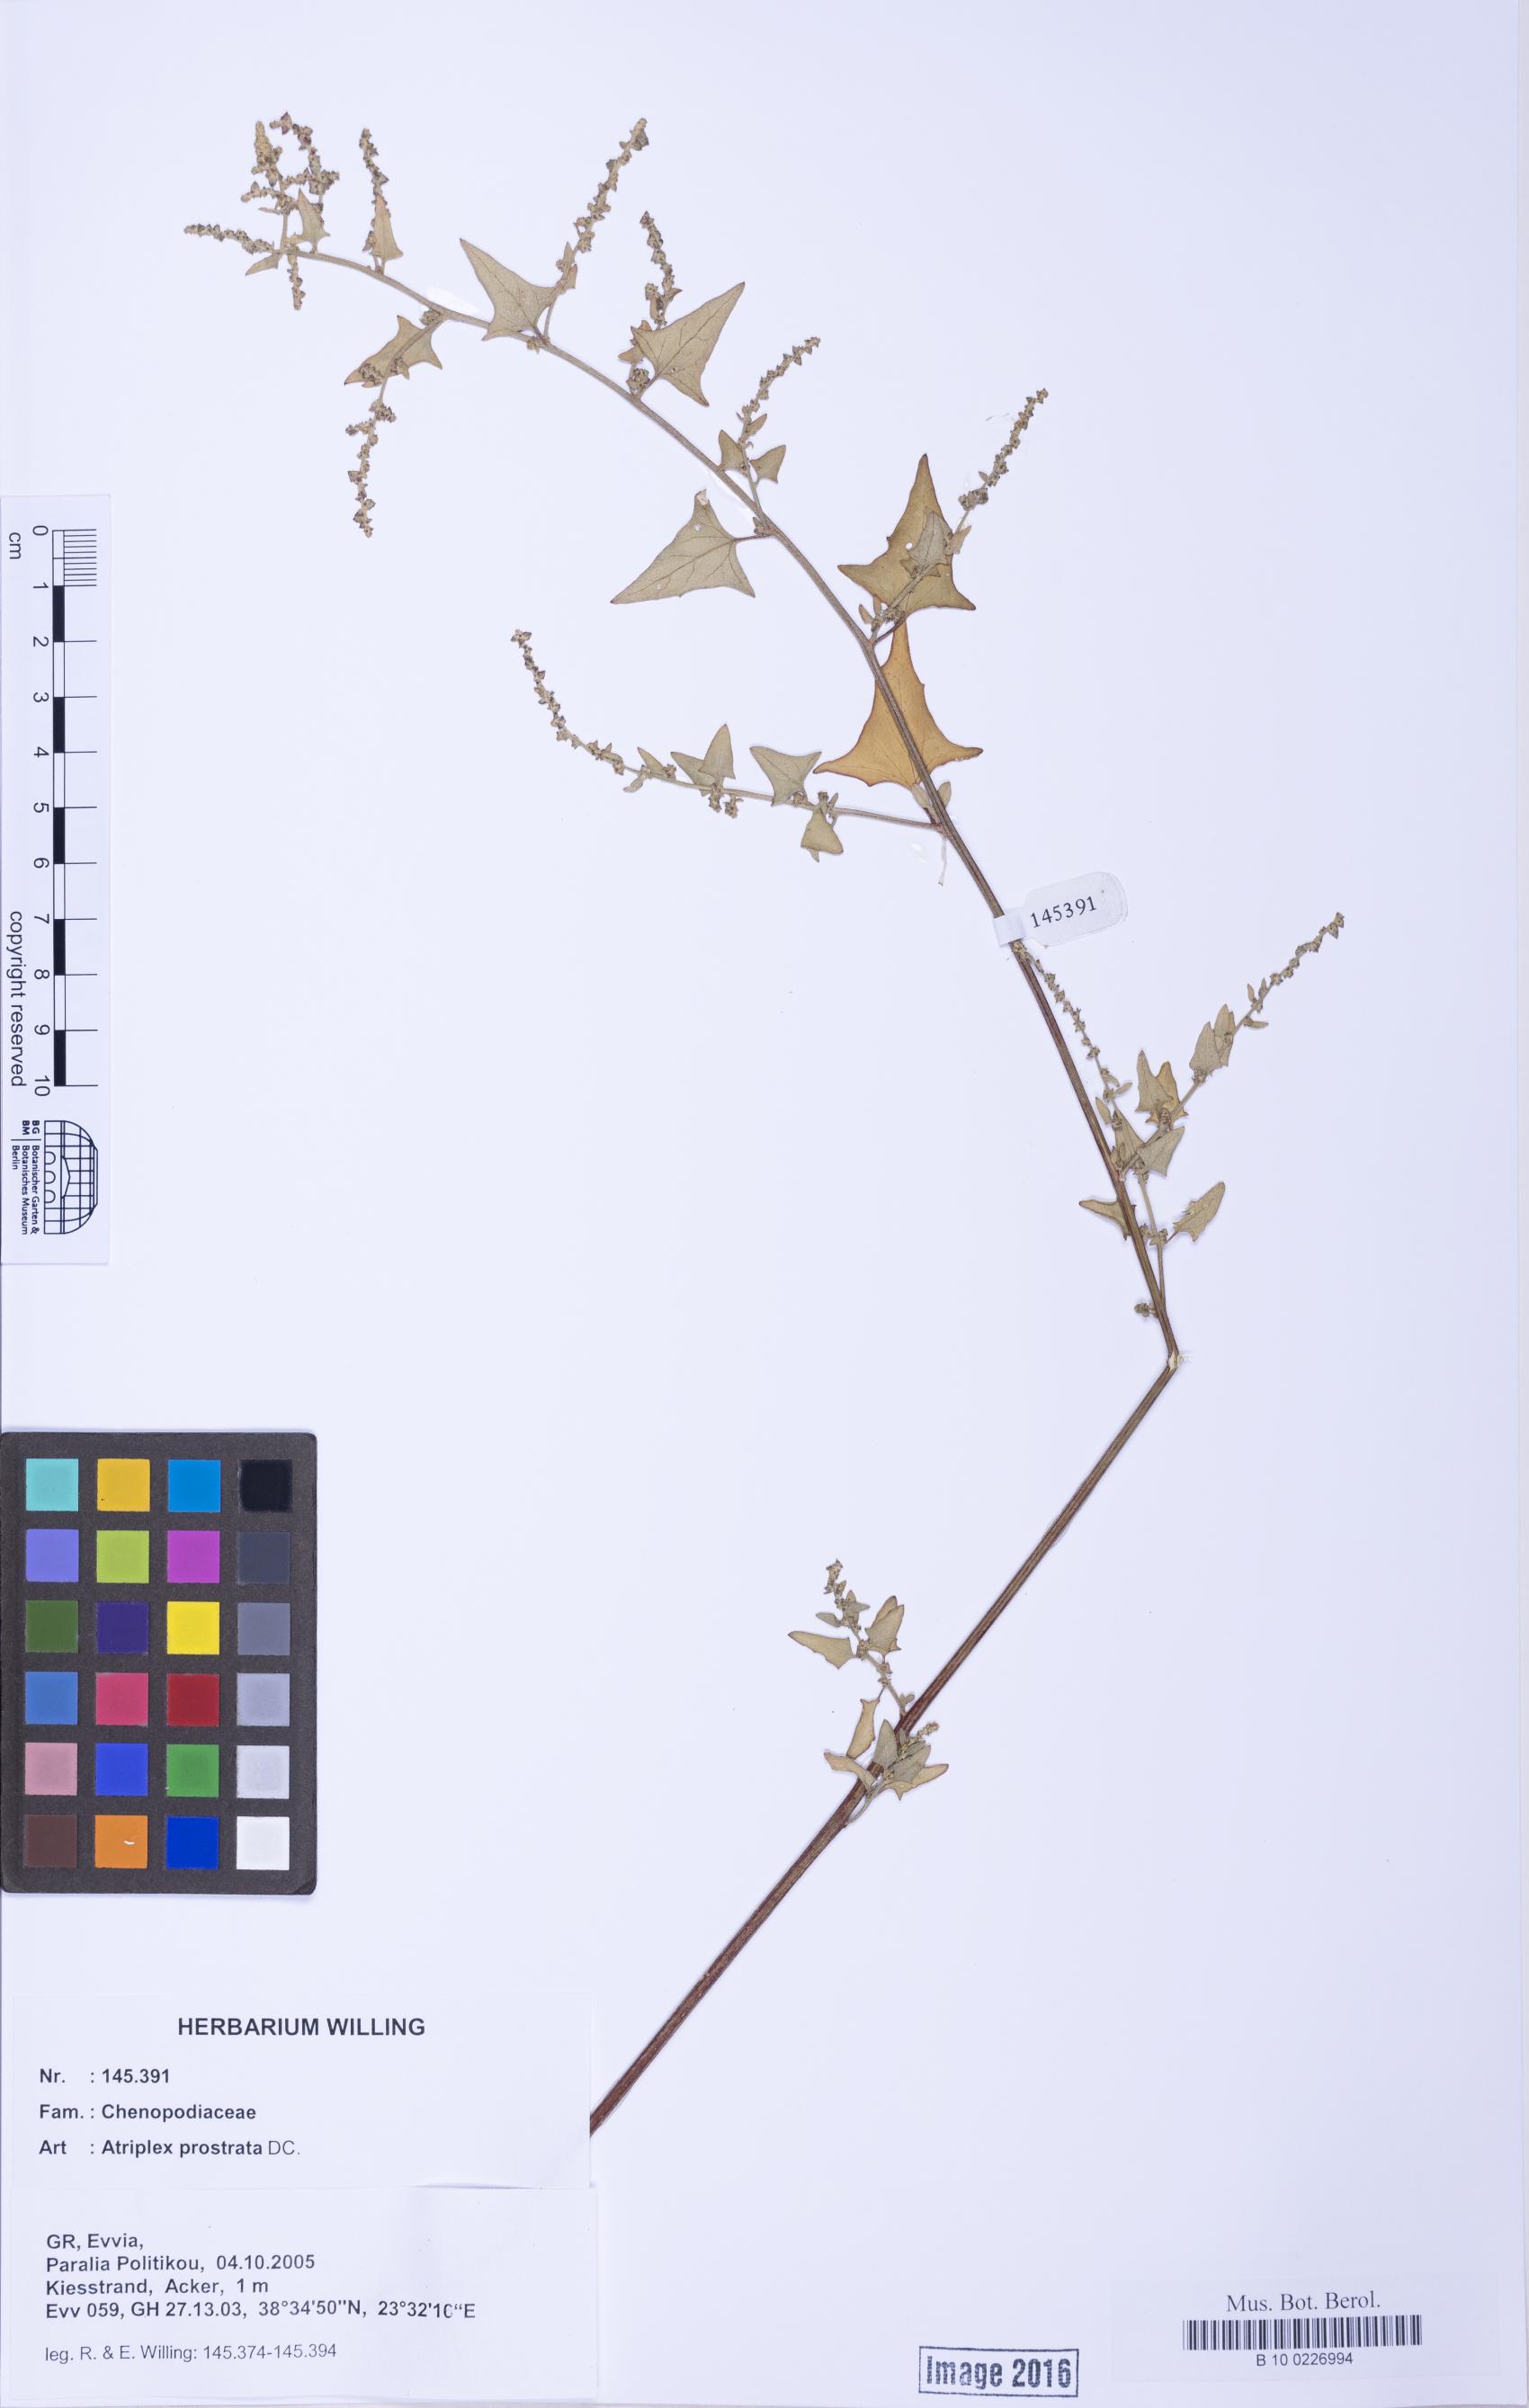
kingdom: Plantae
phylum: Tracheophyta
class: Magnoliopsida
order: Caryophyllales
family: Amaranthaceae
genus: Atriplex
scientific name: Atriplex prostrata
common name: Spear-leaved orache
